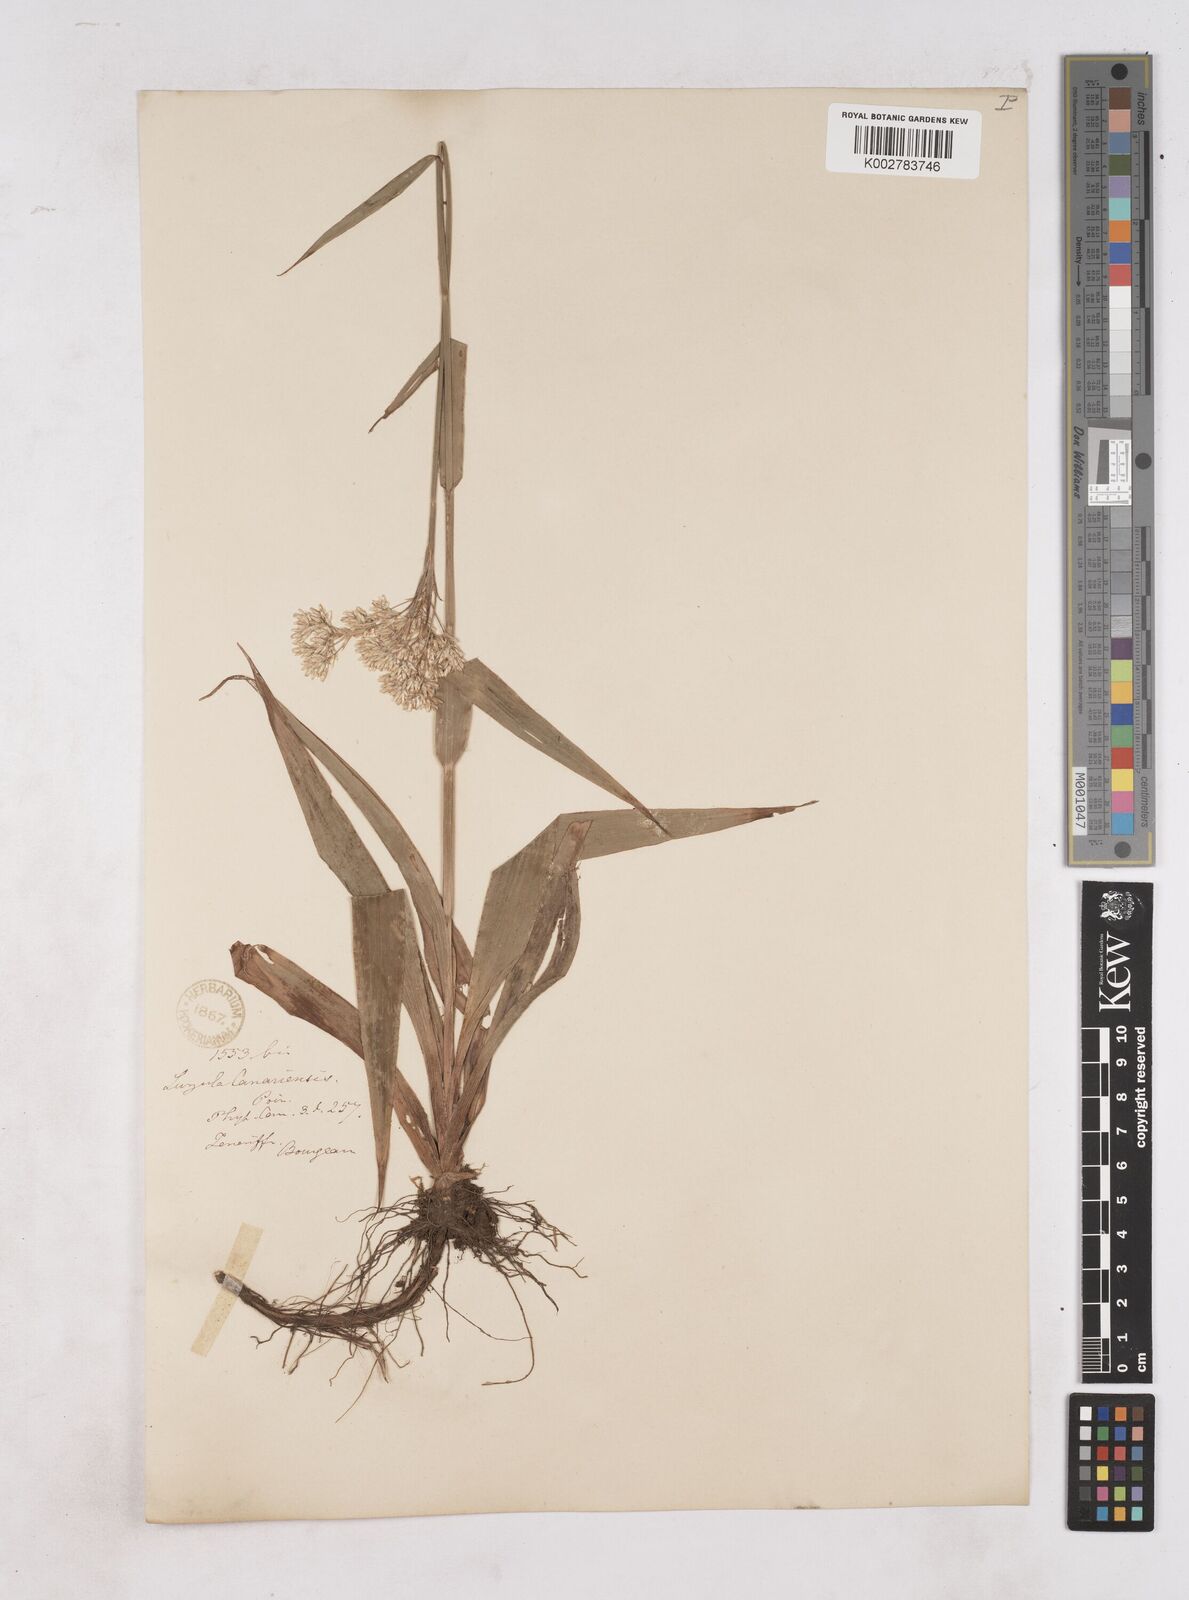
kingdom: Plantae
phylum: Tracheophyta
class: Liliopsida
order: Poales
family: Juncaceae
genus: Luzula
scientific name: Luzula canariensis
